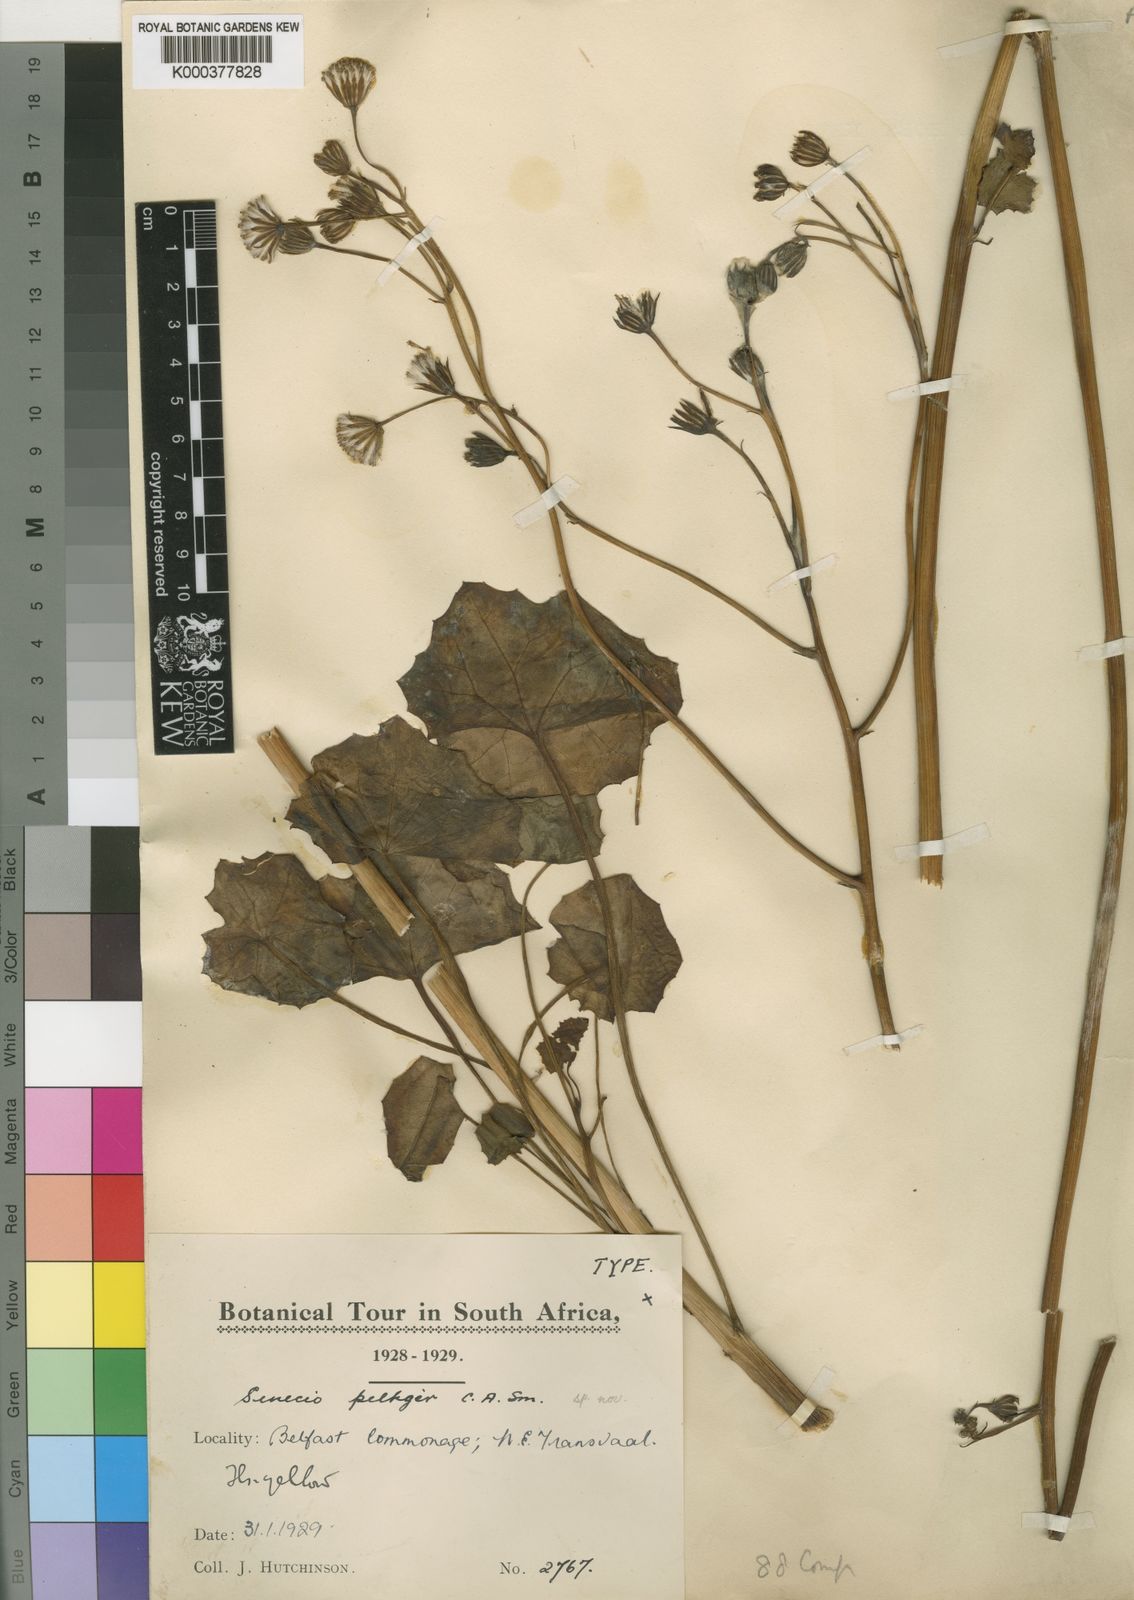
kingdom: Plantae
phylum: Tracheophyta
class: Magnoliopsida
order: Asterales
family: Asteraceae
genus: Senecio
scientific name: Senecio
